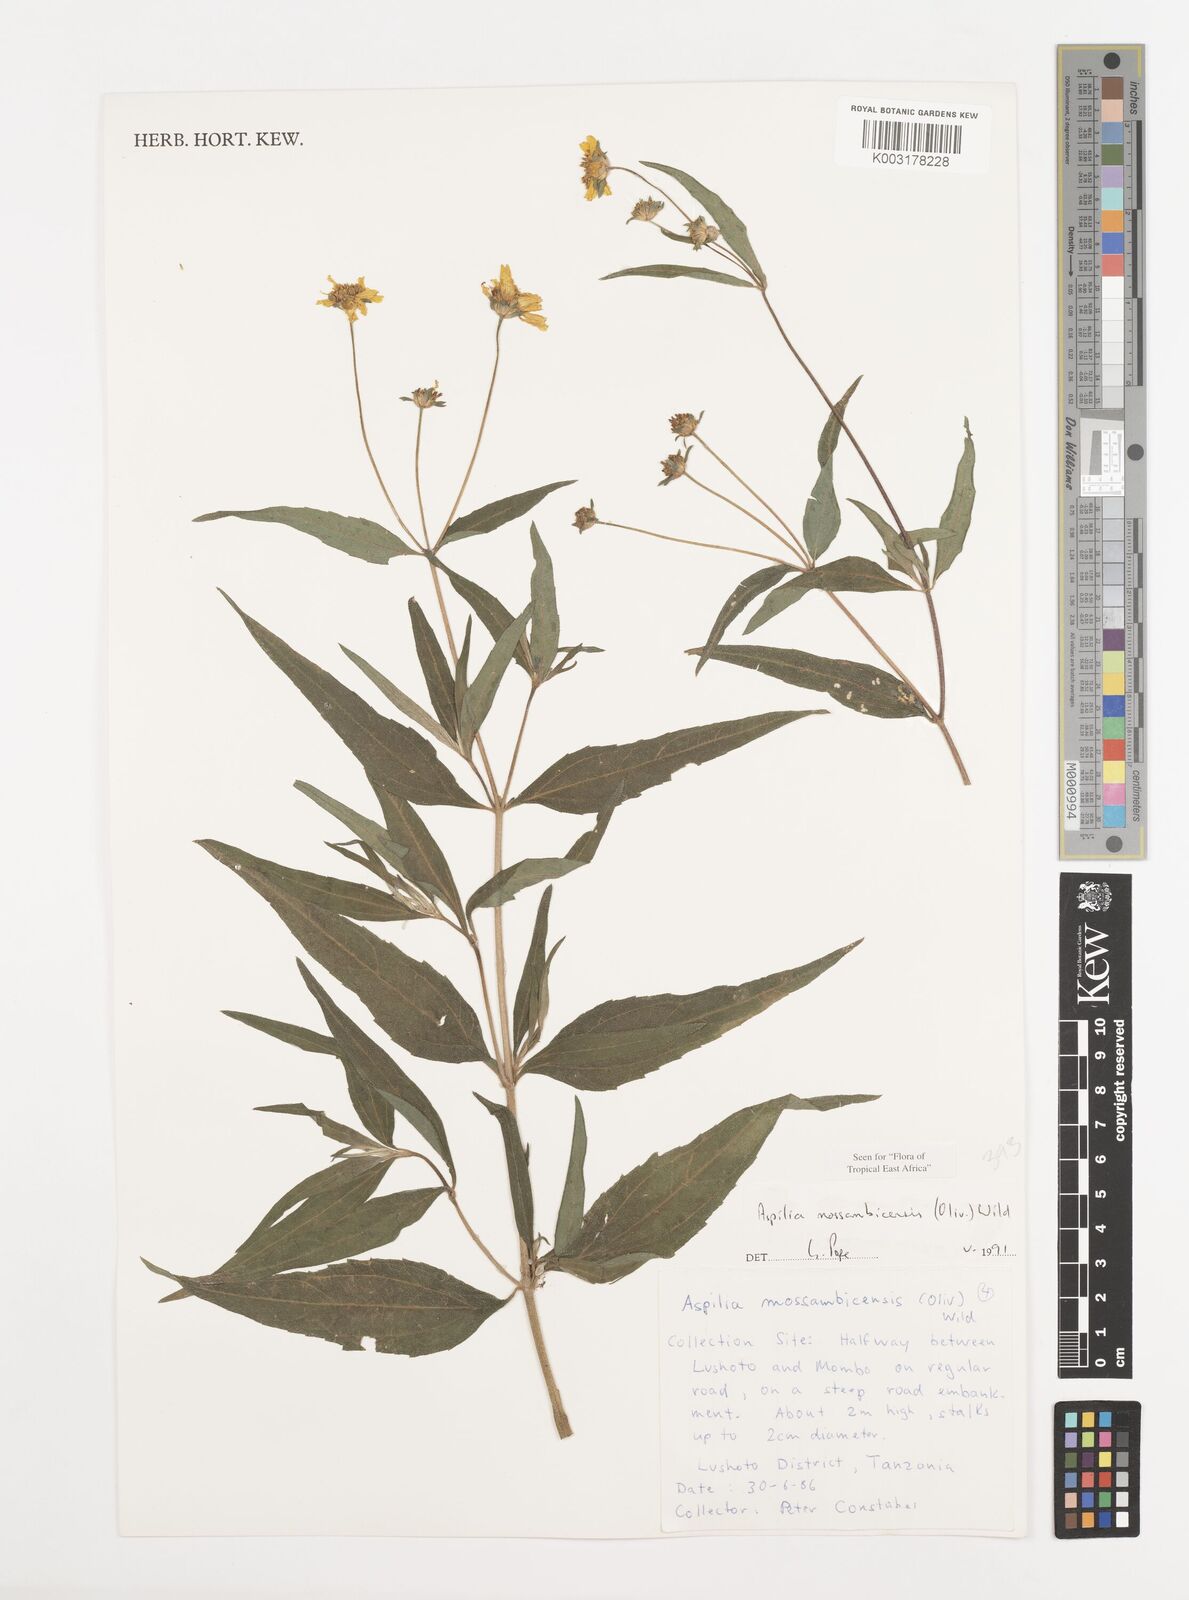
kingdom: Plantae
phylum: Tracheophyta
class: Magnoliopsida
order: Asterales
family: Asteraceae
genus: Aspilia
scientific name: Aspilia mossambicensis
